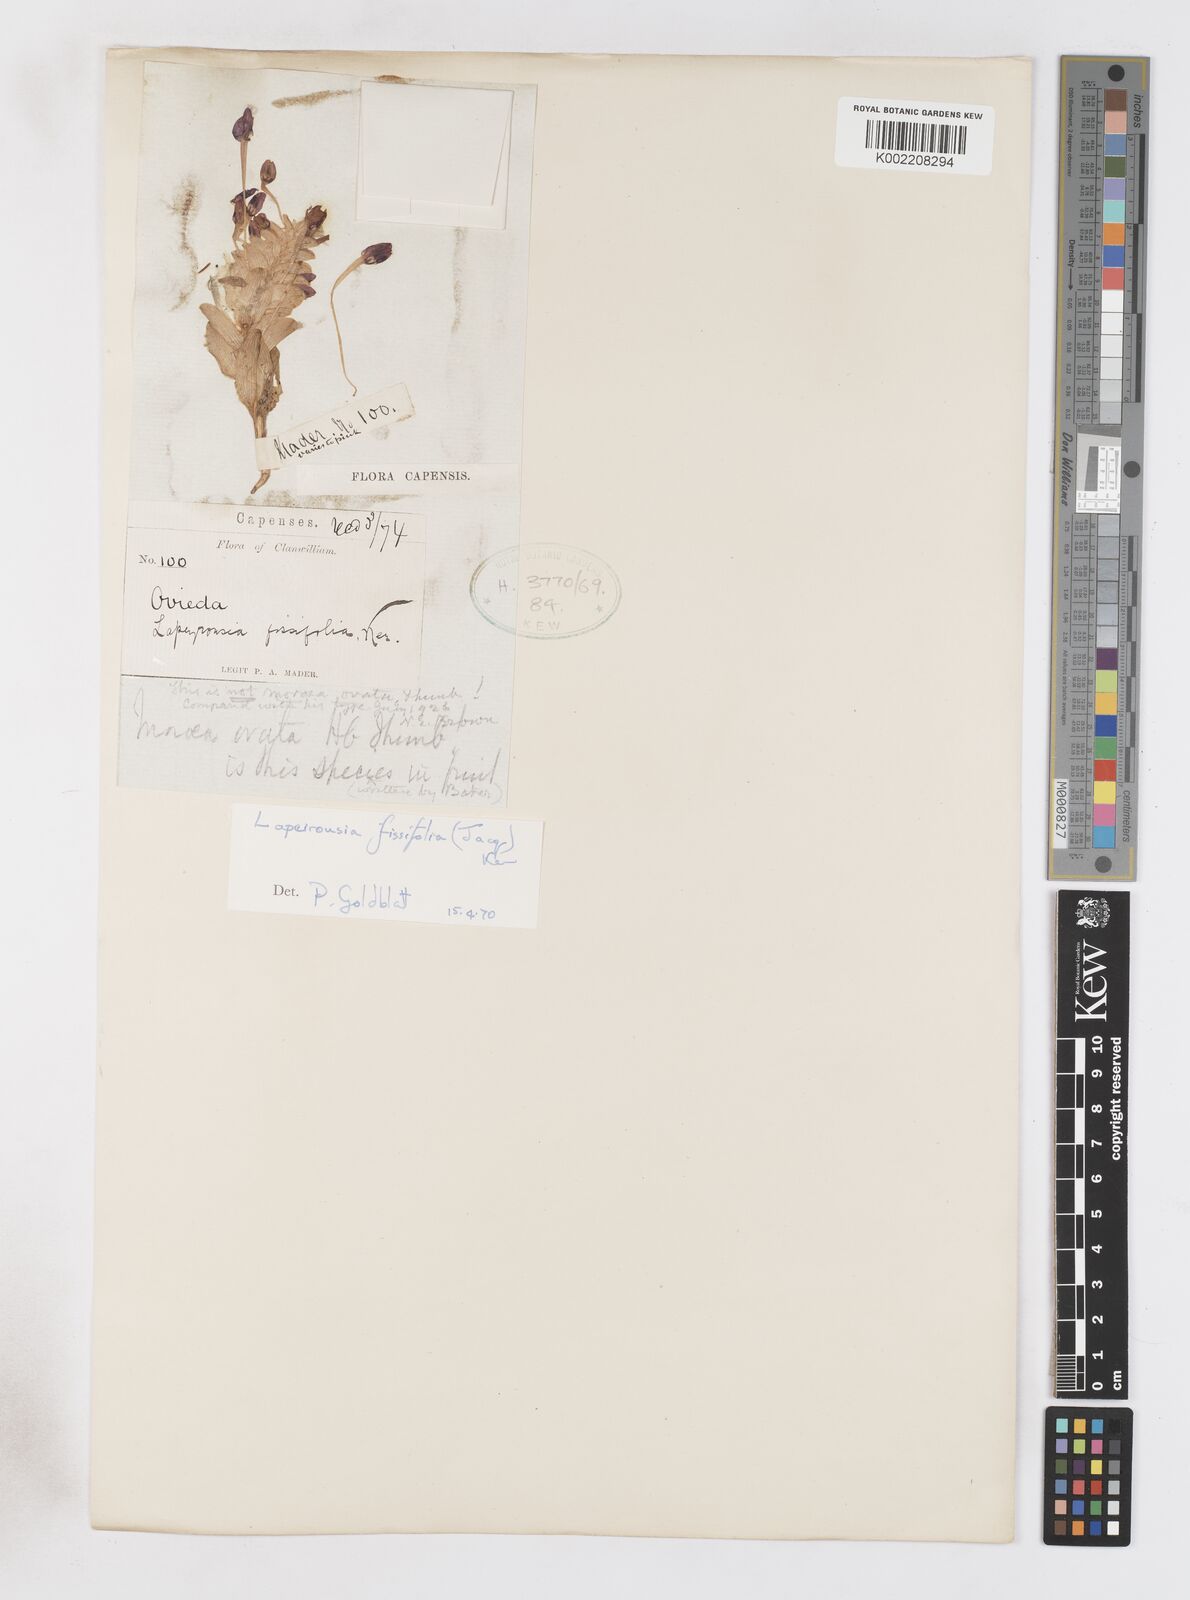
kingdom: Plantae
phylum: Tracheophyta
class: Liliopsida
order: Asparagales
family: Iridaceae
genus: Lapeirousia
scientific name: Lapeirousia pyramidalis
